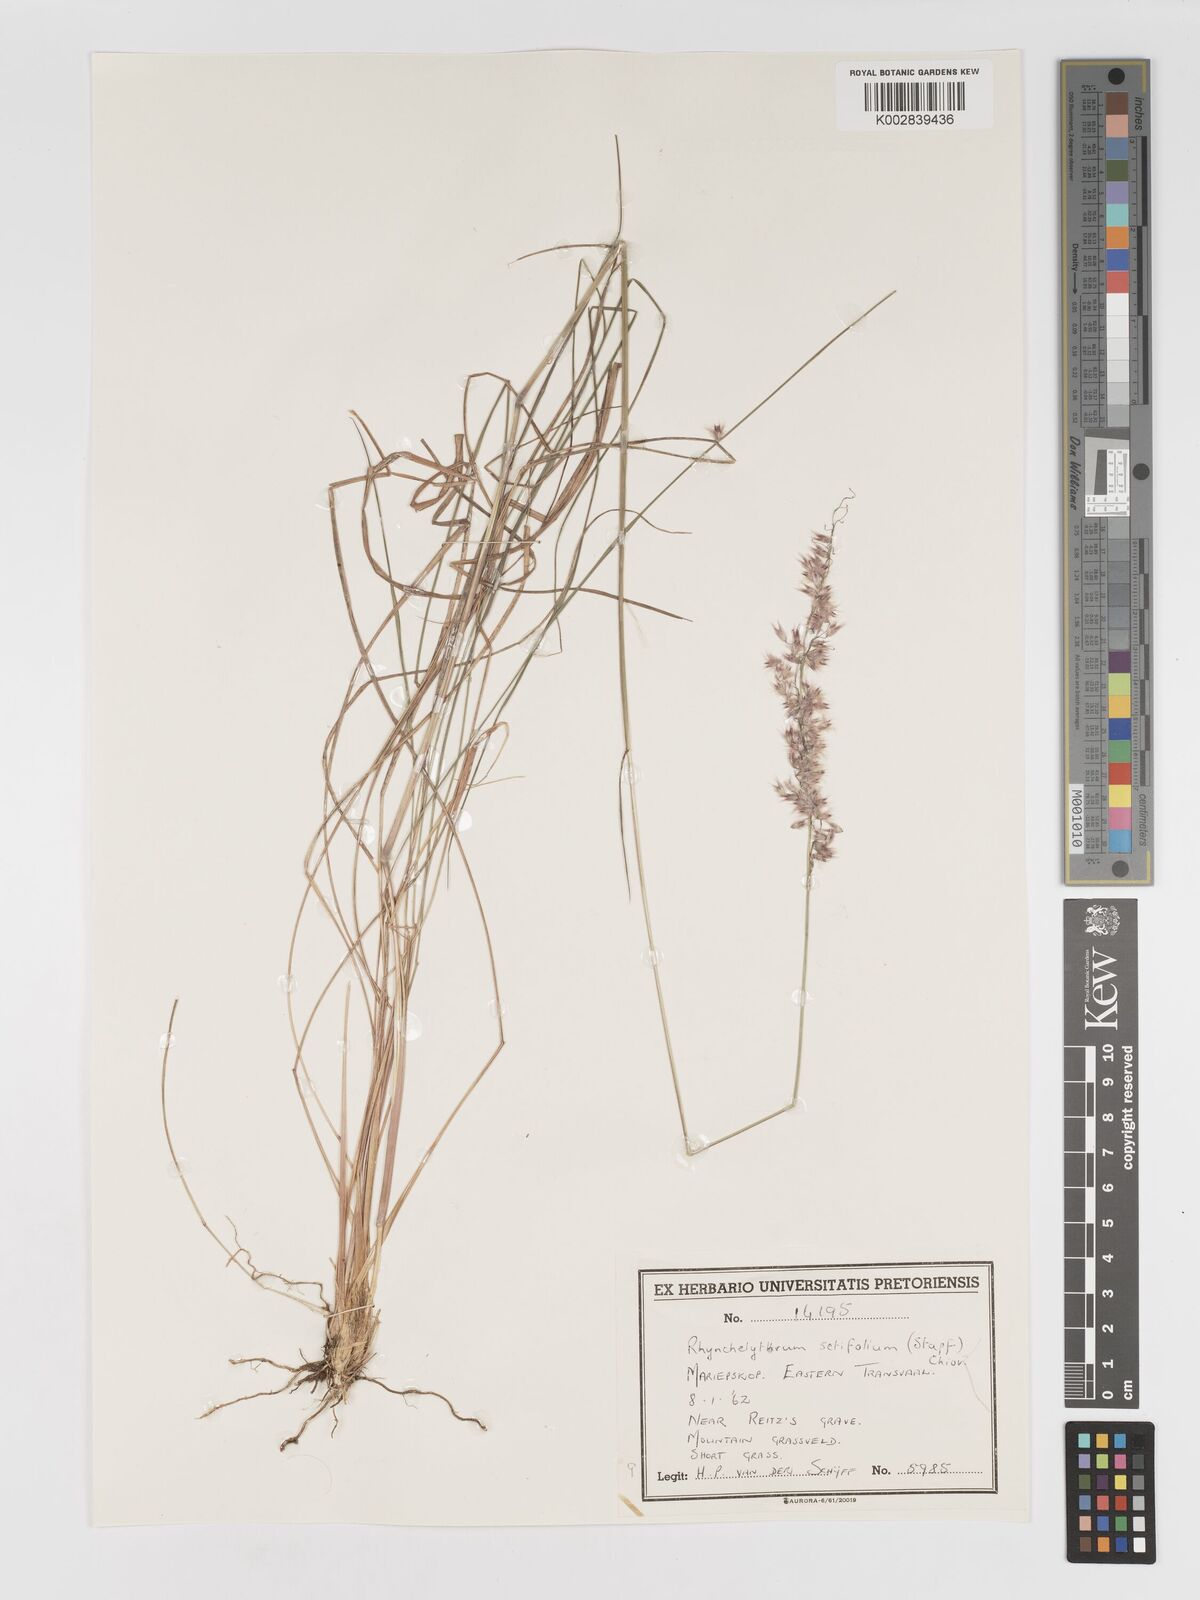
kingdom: Plantae
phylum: Tracheophyta
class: Liliopsida
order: Poales
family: Poaceae
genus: Melinis
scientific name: Melinis nerviglumis
